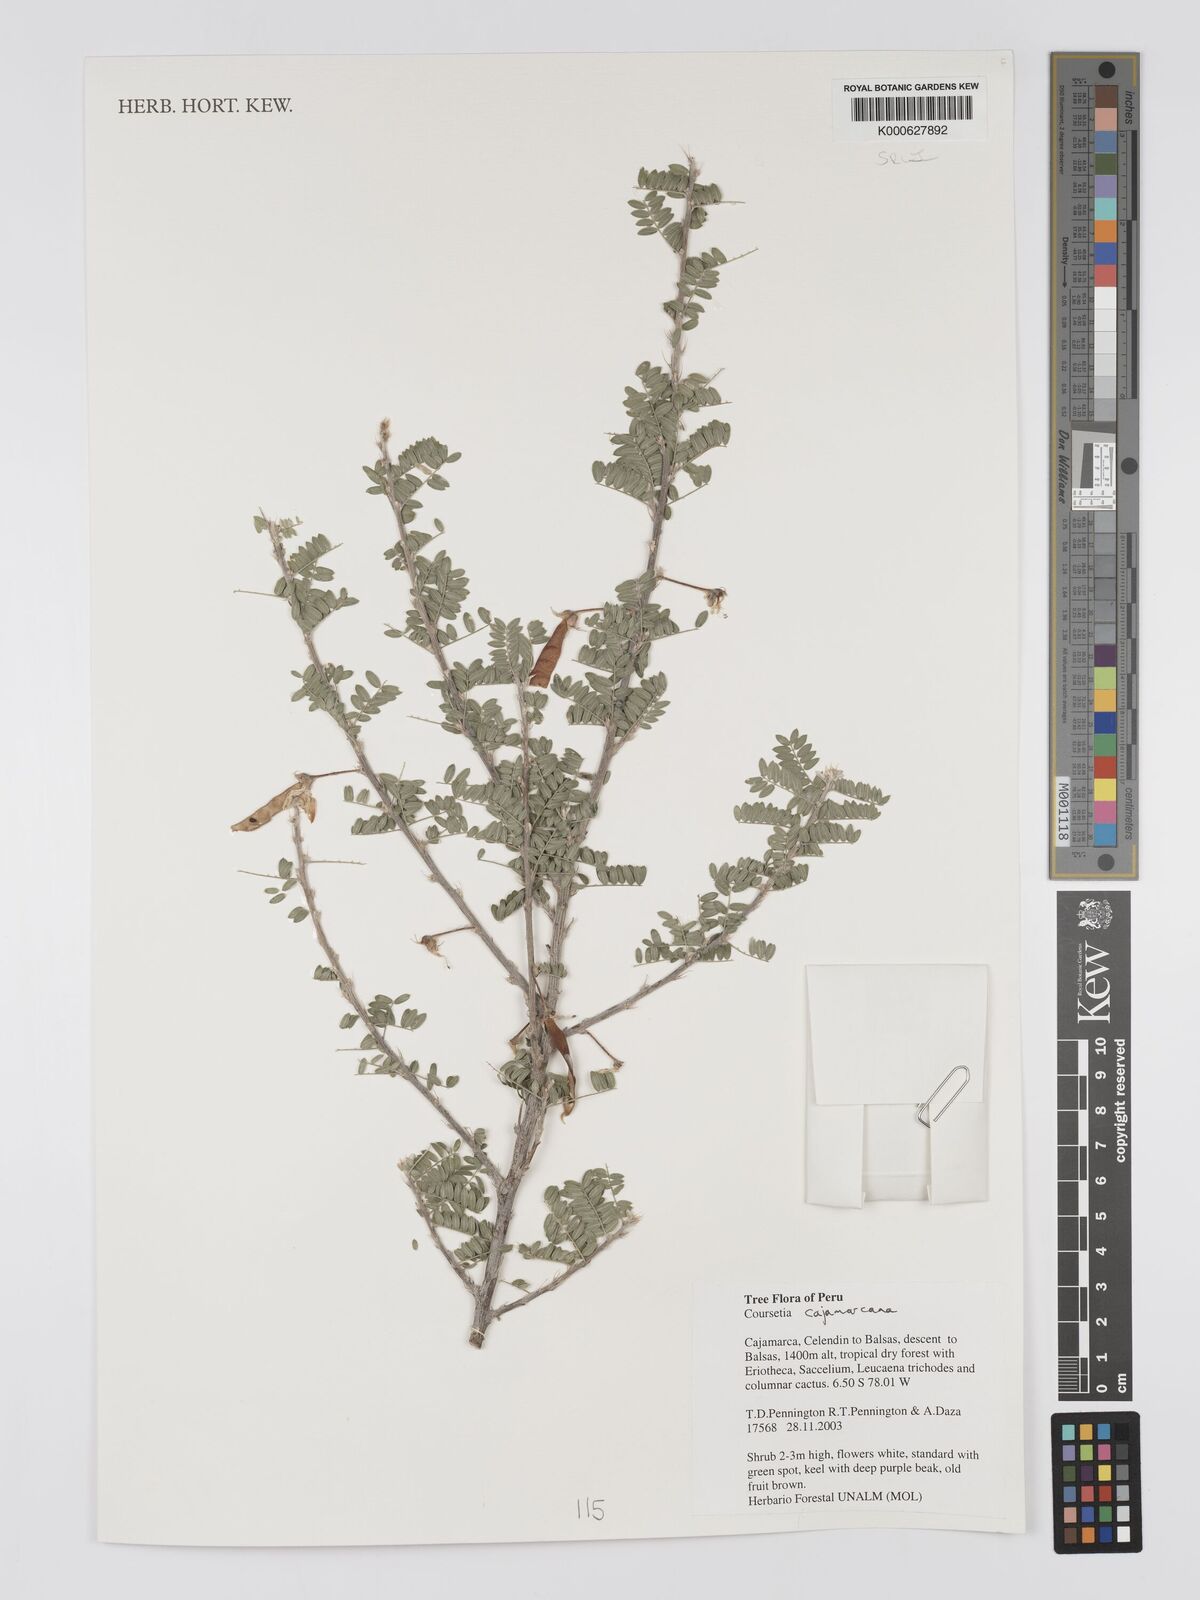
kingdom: Plantae
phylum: Tracheophyta
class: Magnoliopsida
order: Fabales
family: Fabaceae
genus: Coursetia
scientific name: Coursetia cajamarcana
